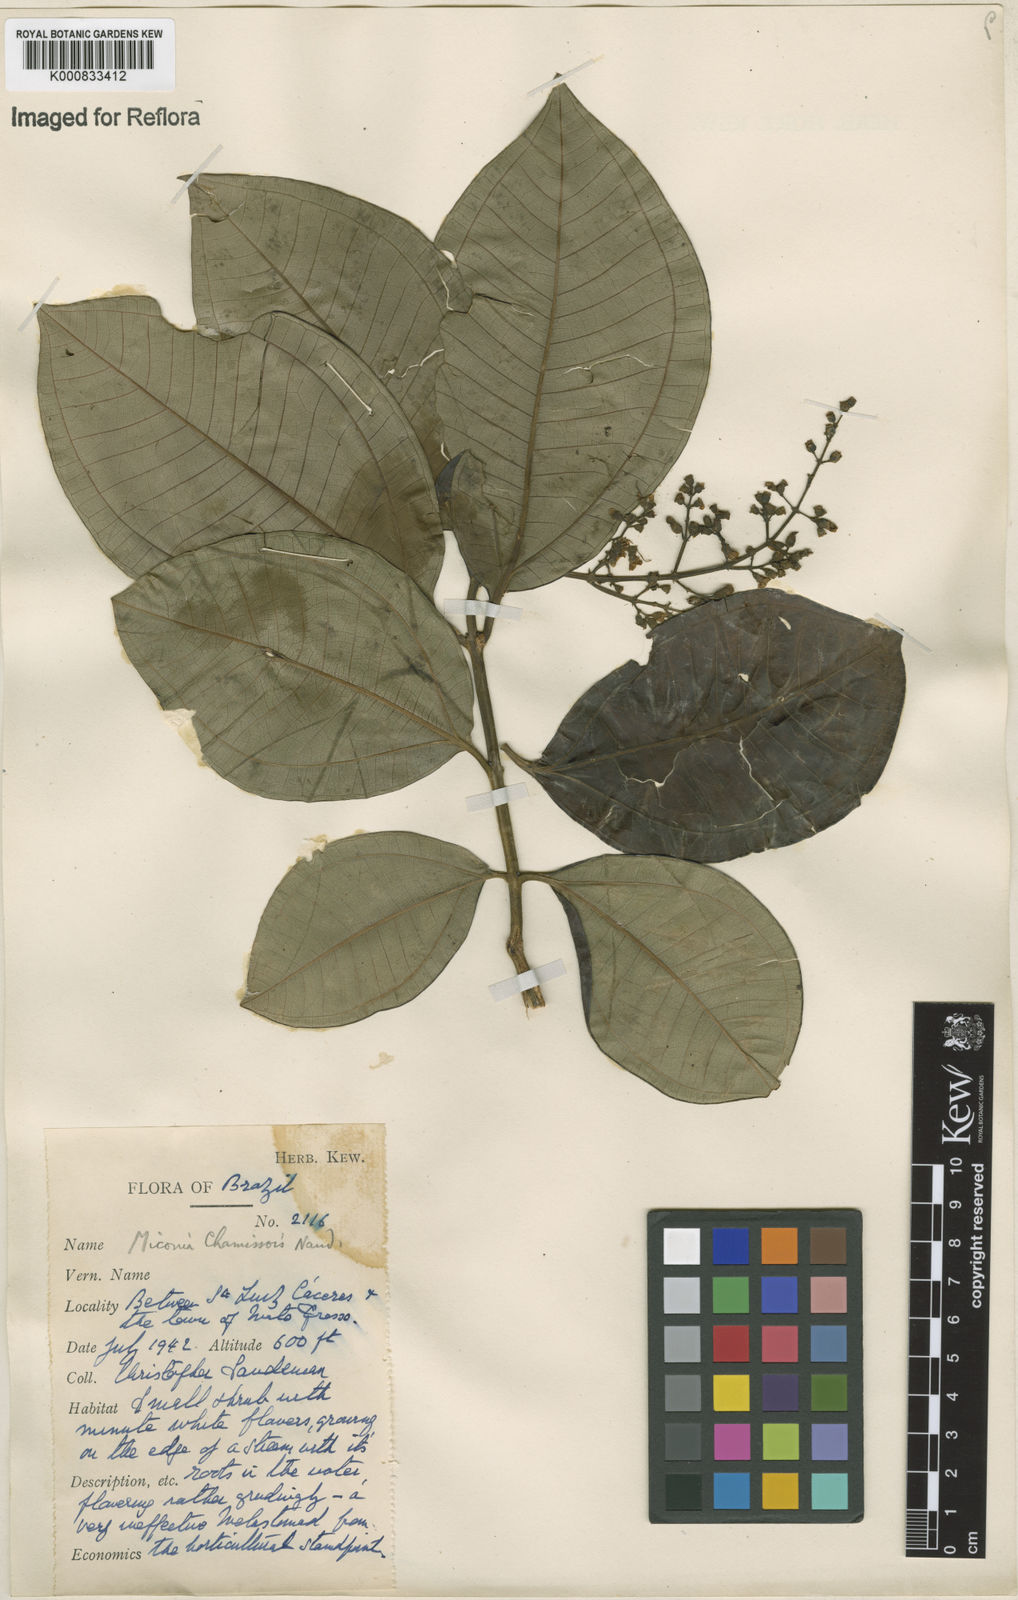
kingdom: Plantae
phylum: Tracheophyta
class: Magnoliopsida
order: Myrtales
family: Melastomataceae
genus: Miconia
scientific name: Miconia chamissois
